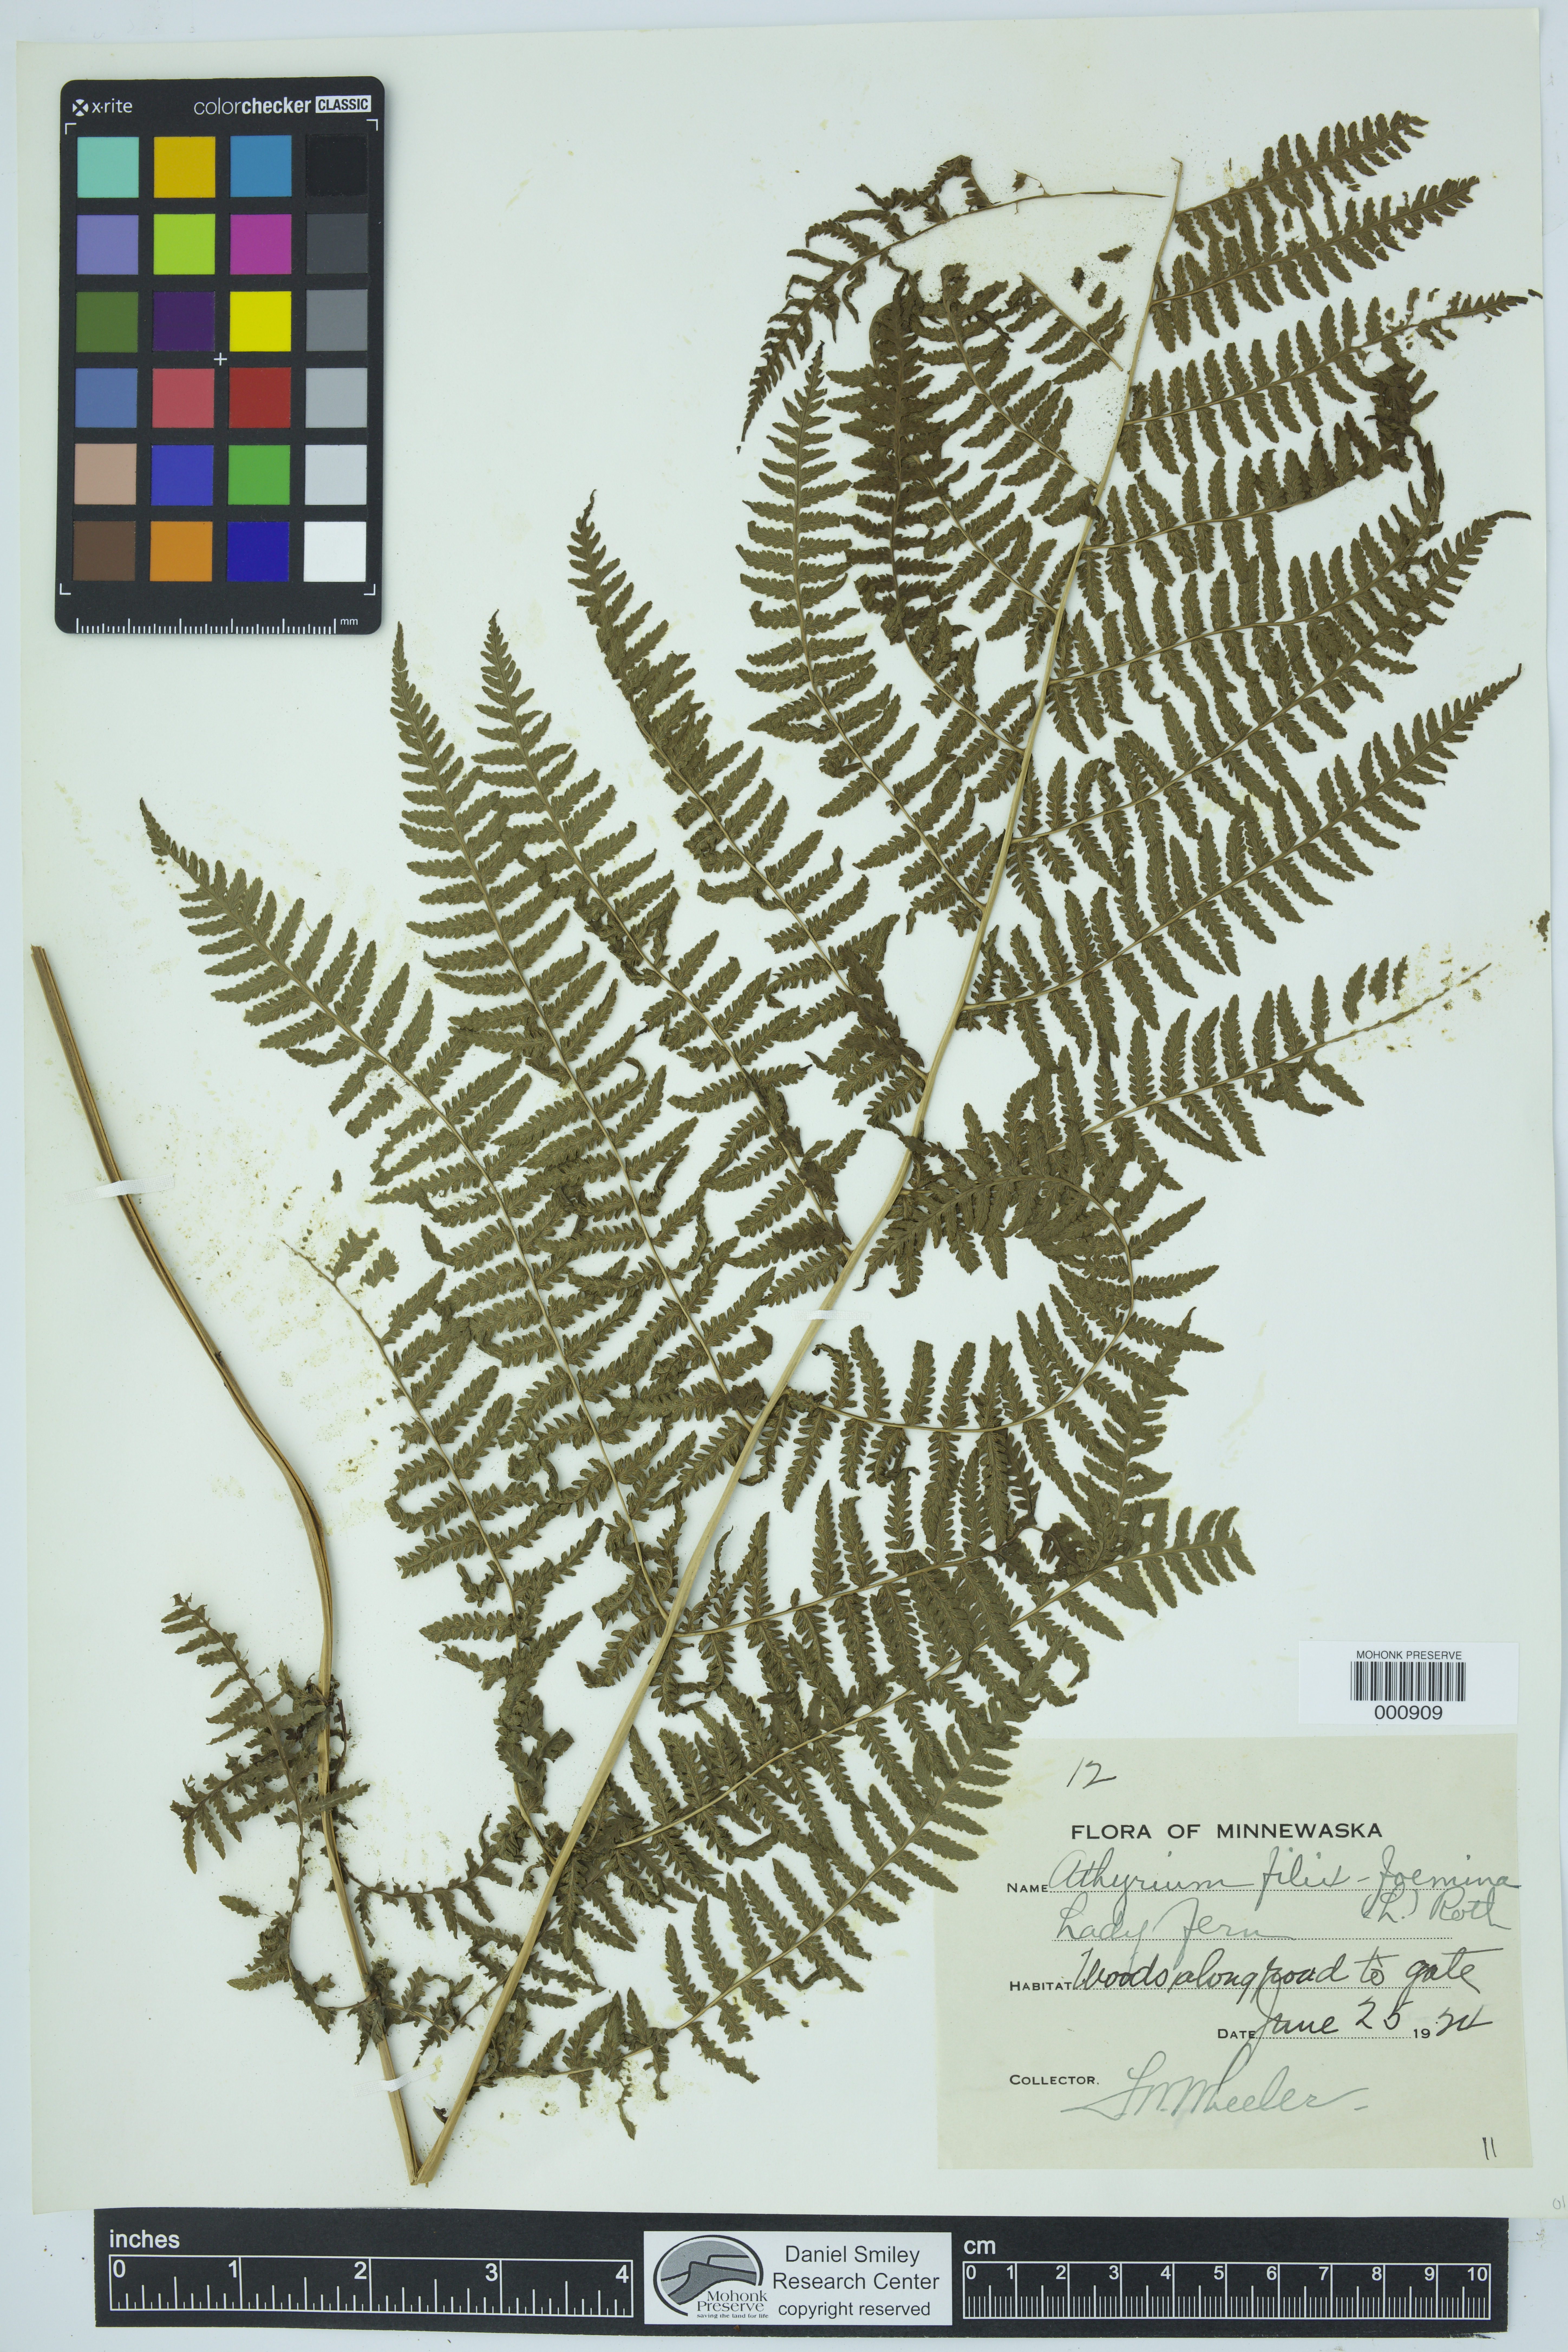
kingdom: Plantae
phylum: Tracheophyta
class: Polypodiopsida
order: Polypodiales
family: Athyriaceae
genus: Athyrium
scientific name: Athyrium filix-femina
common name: Lady fern
